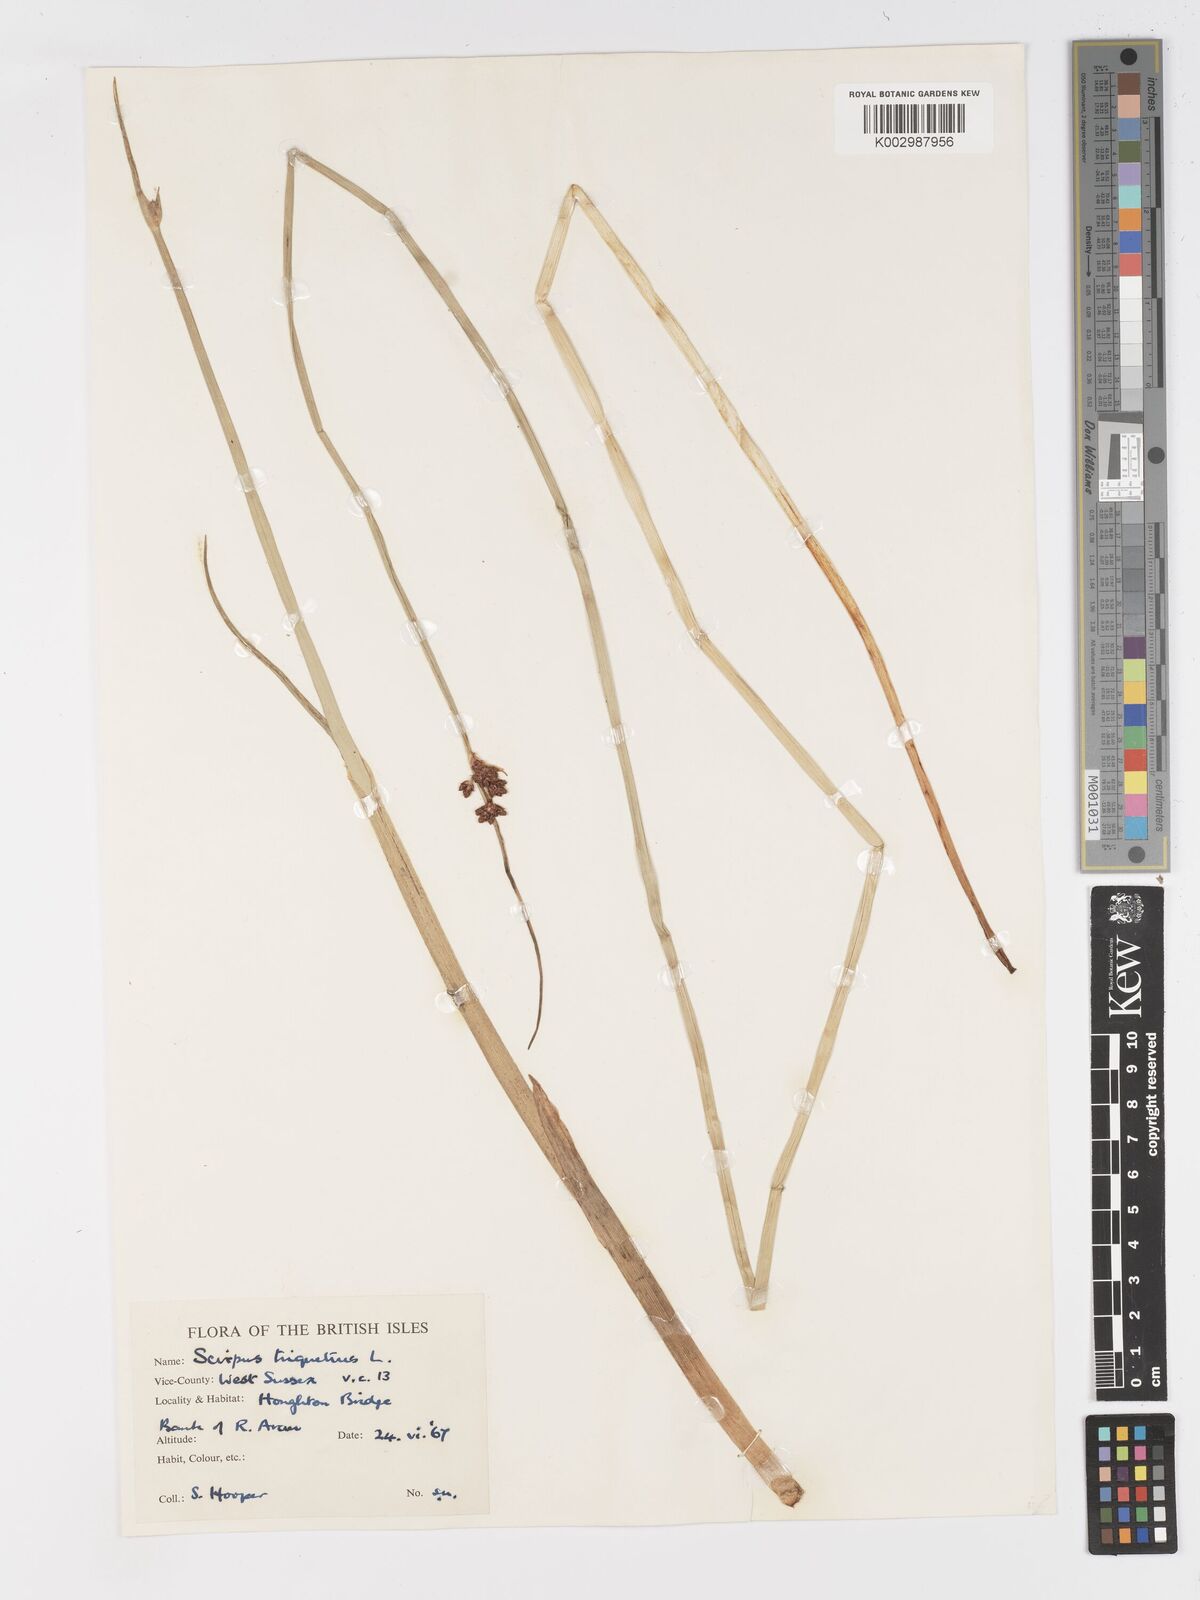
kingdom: Plantae
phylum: Tracheophyta
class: Liliopsida
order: Poales
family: Cyperaceae
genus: Schoenoplectus
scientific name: Schoenoplectus triqueter
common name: Triangular club-rush
